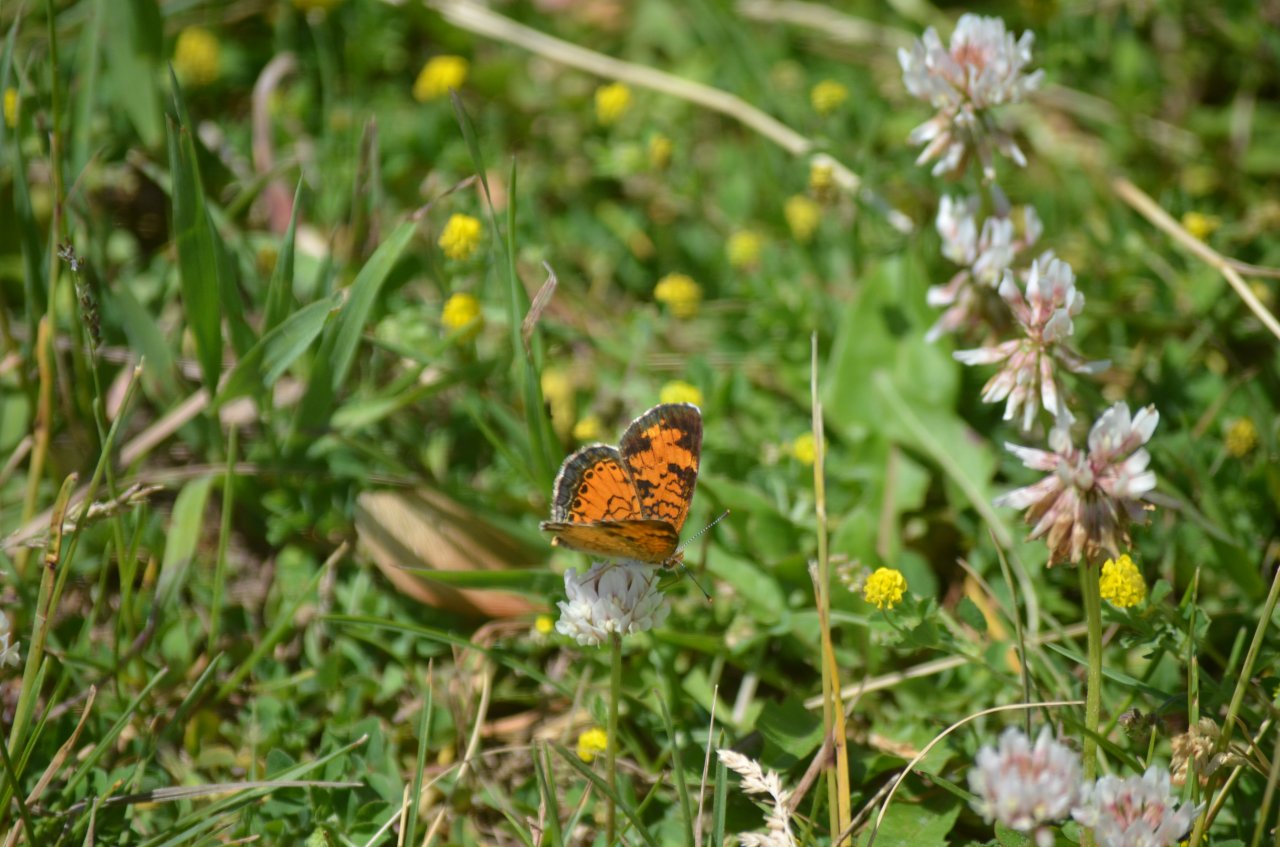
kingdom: Animalia
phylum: Arthropoda
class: Insecta
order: Lepidoptera
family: Nymphalidae
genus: Phyciodes
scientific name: Phyciodes tharos
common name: Northern Crescent
